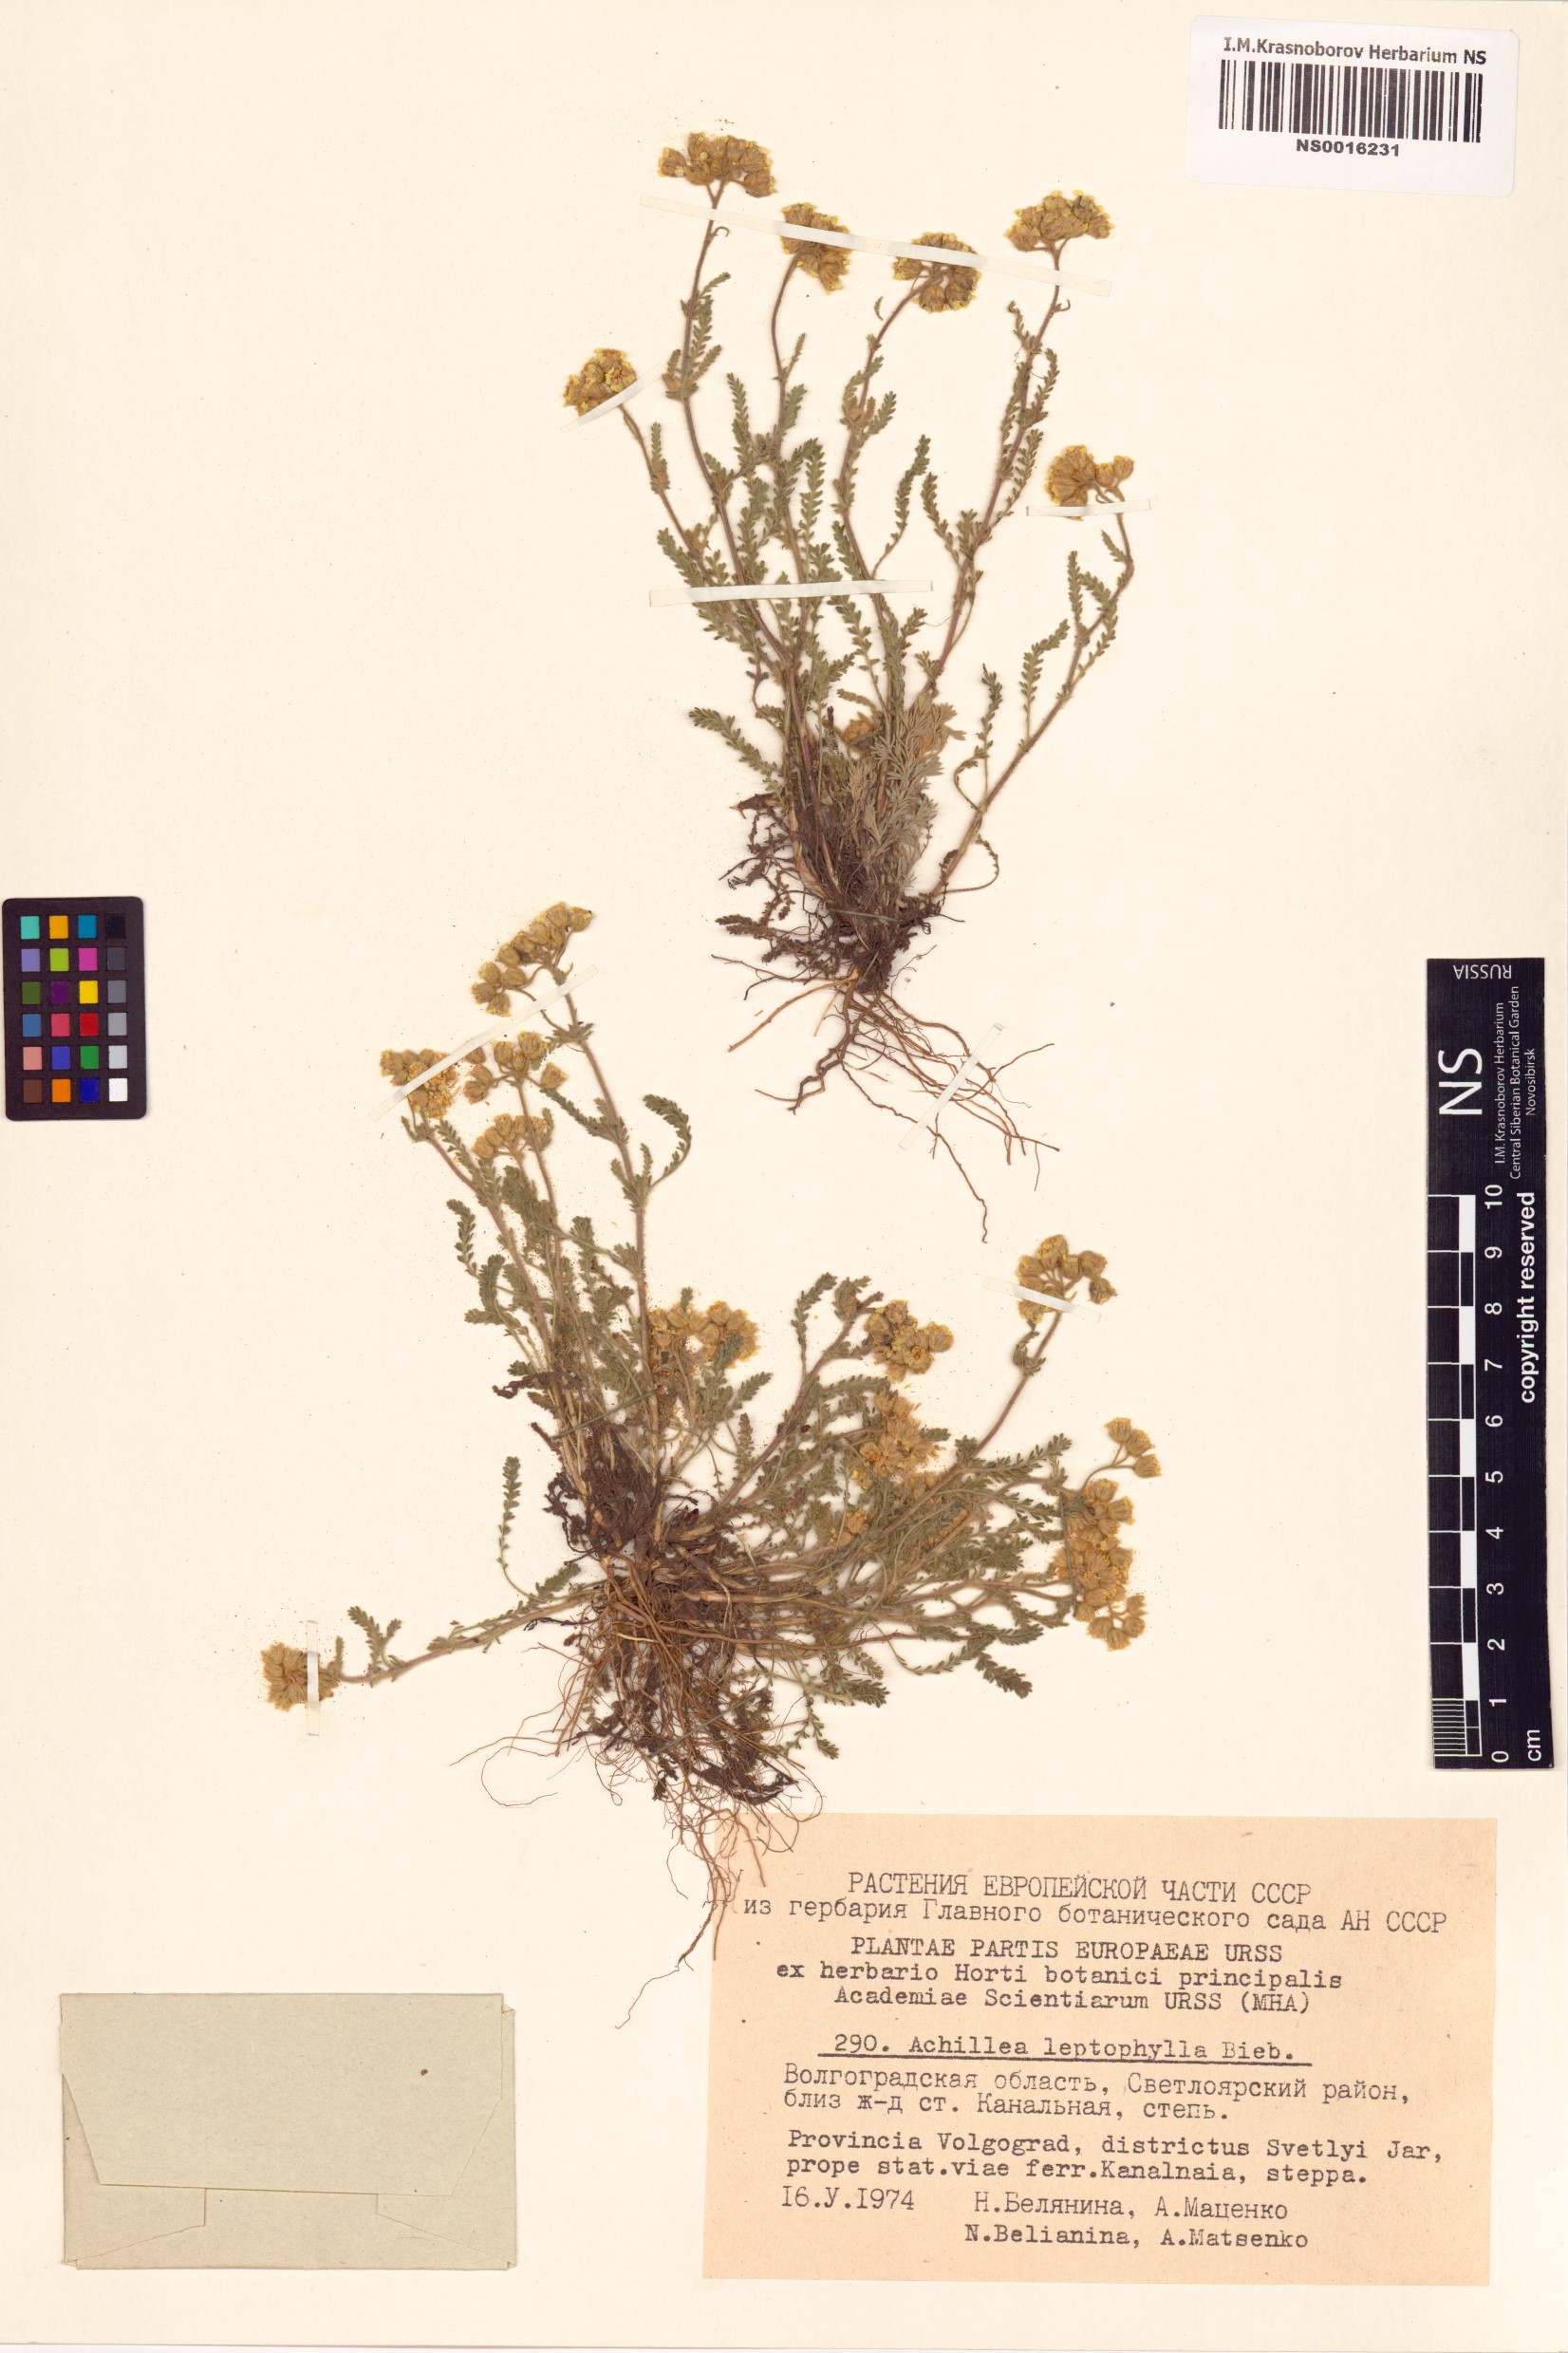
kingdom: Plantae
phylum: Tracheophyta
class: Magnoliopsida
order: Asterales
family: Asteraceae
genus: Achillea
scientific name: Achillea leptophylla
